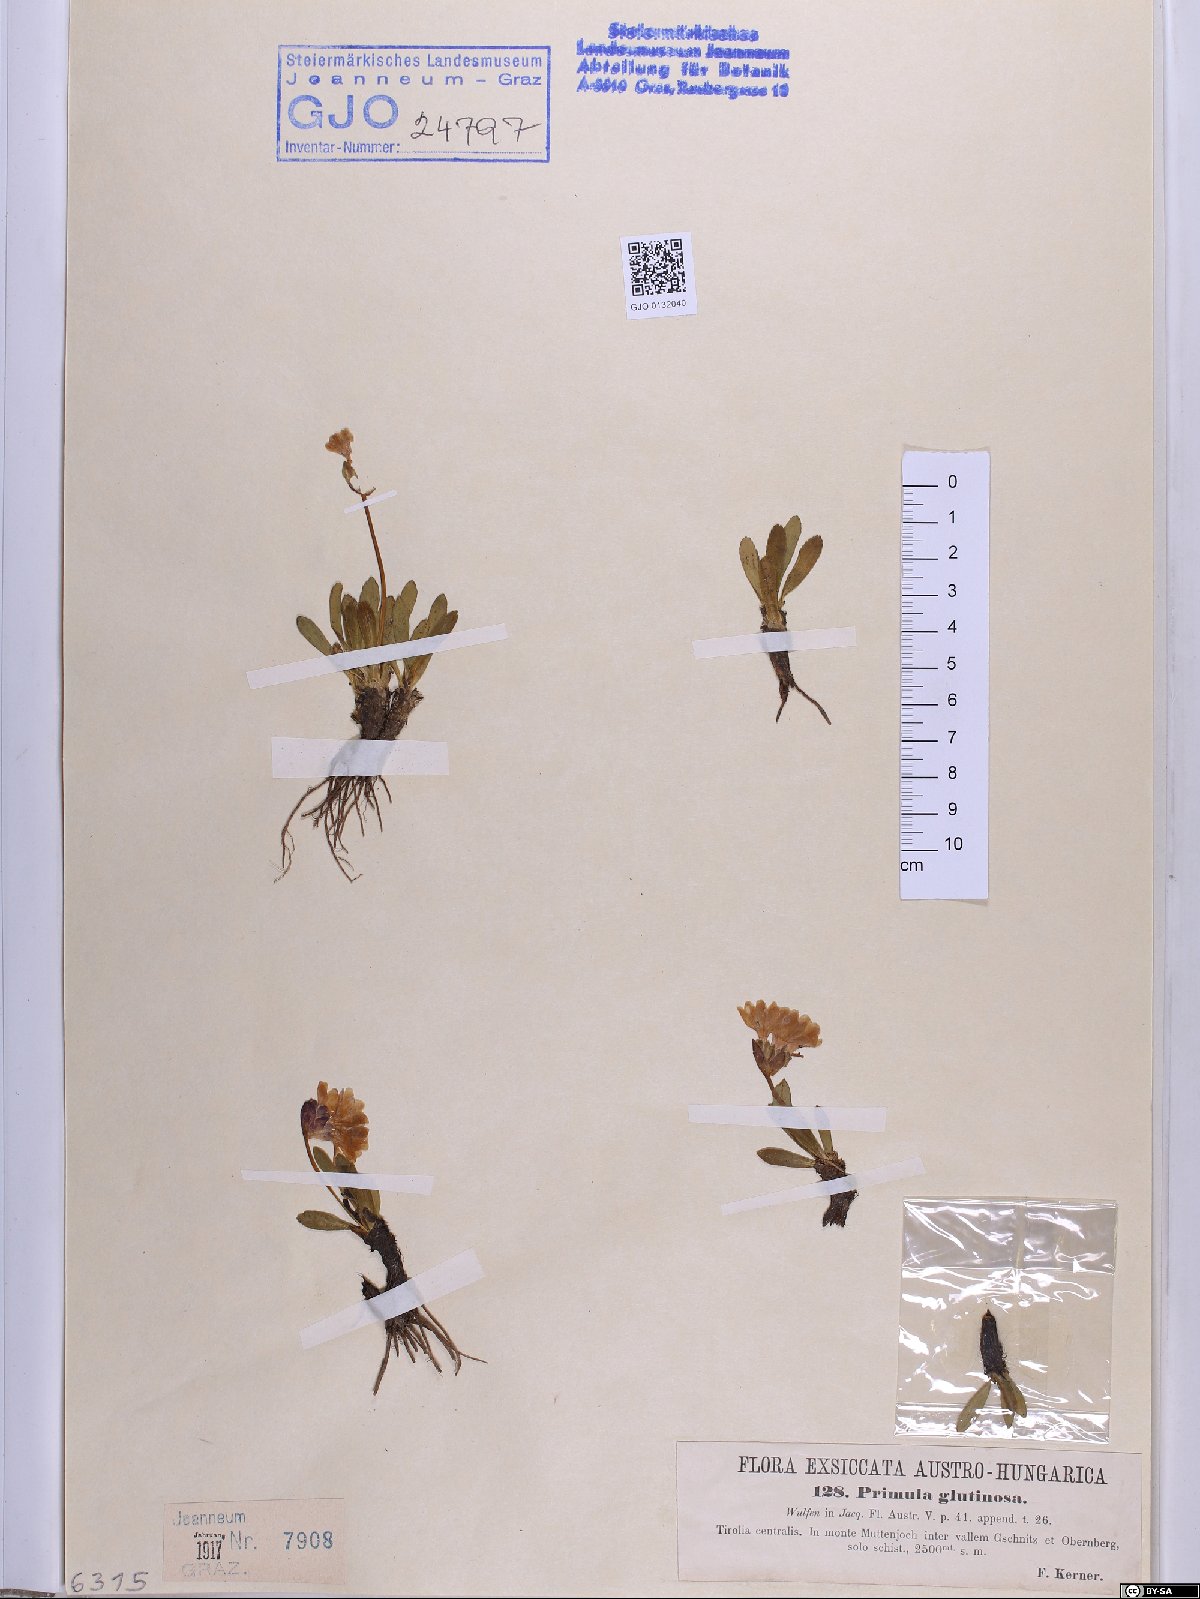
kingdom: Plantae
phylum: Tracheophyta
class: Magnoliopsida
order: Ericales
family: Primulaceae
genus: Primula
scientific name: Primula glutinosa
